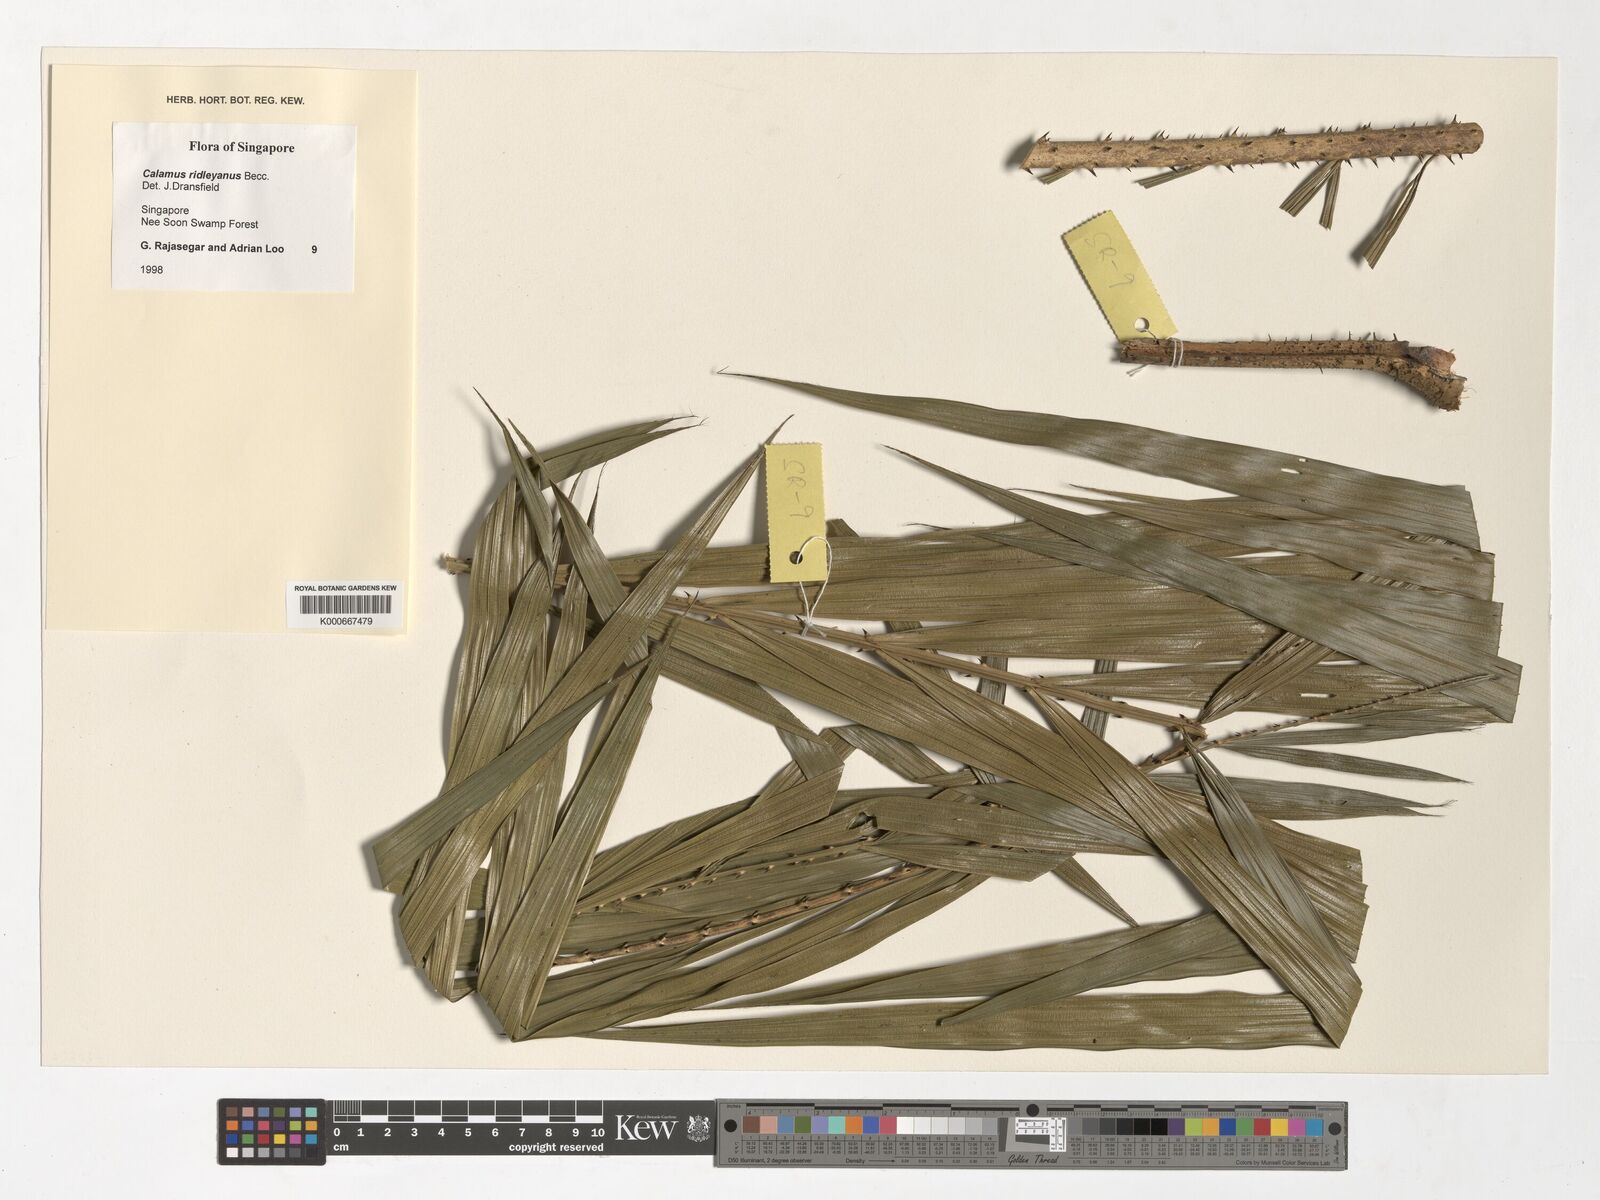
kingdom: Plantae
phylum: Tracheophyta
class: Liliopsida
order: Arecales
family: Arecaceae
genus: Calamus
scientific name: Calamus ridleyanus
